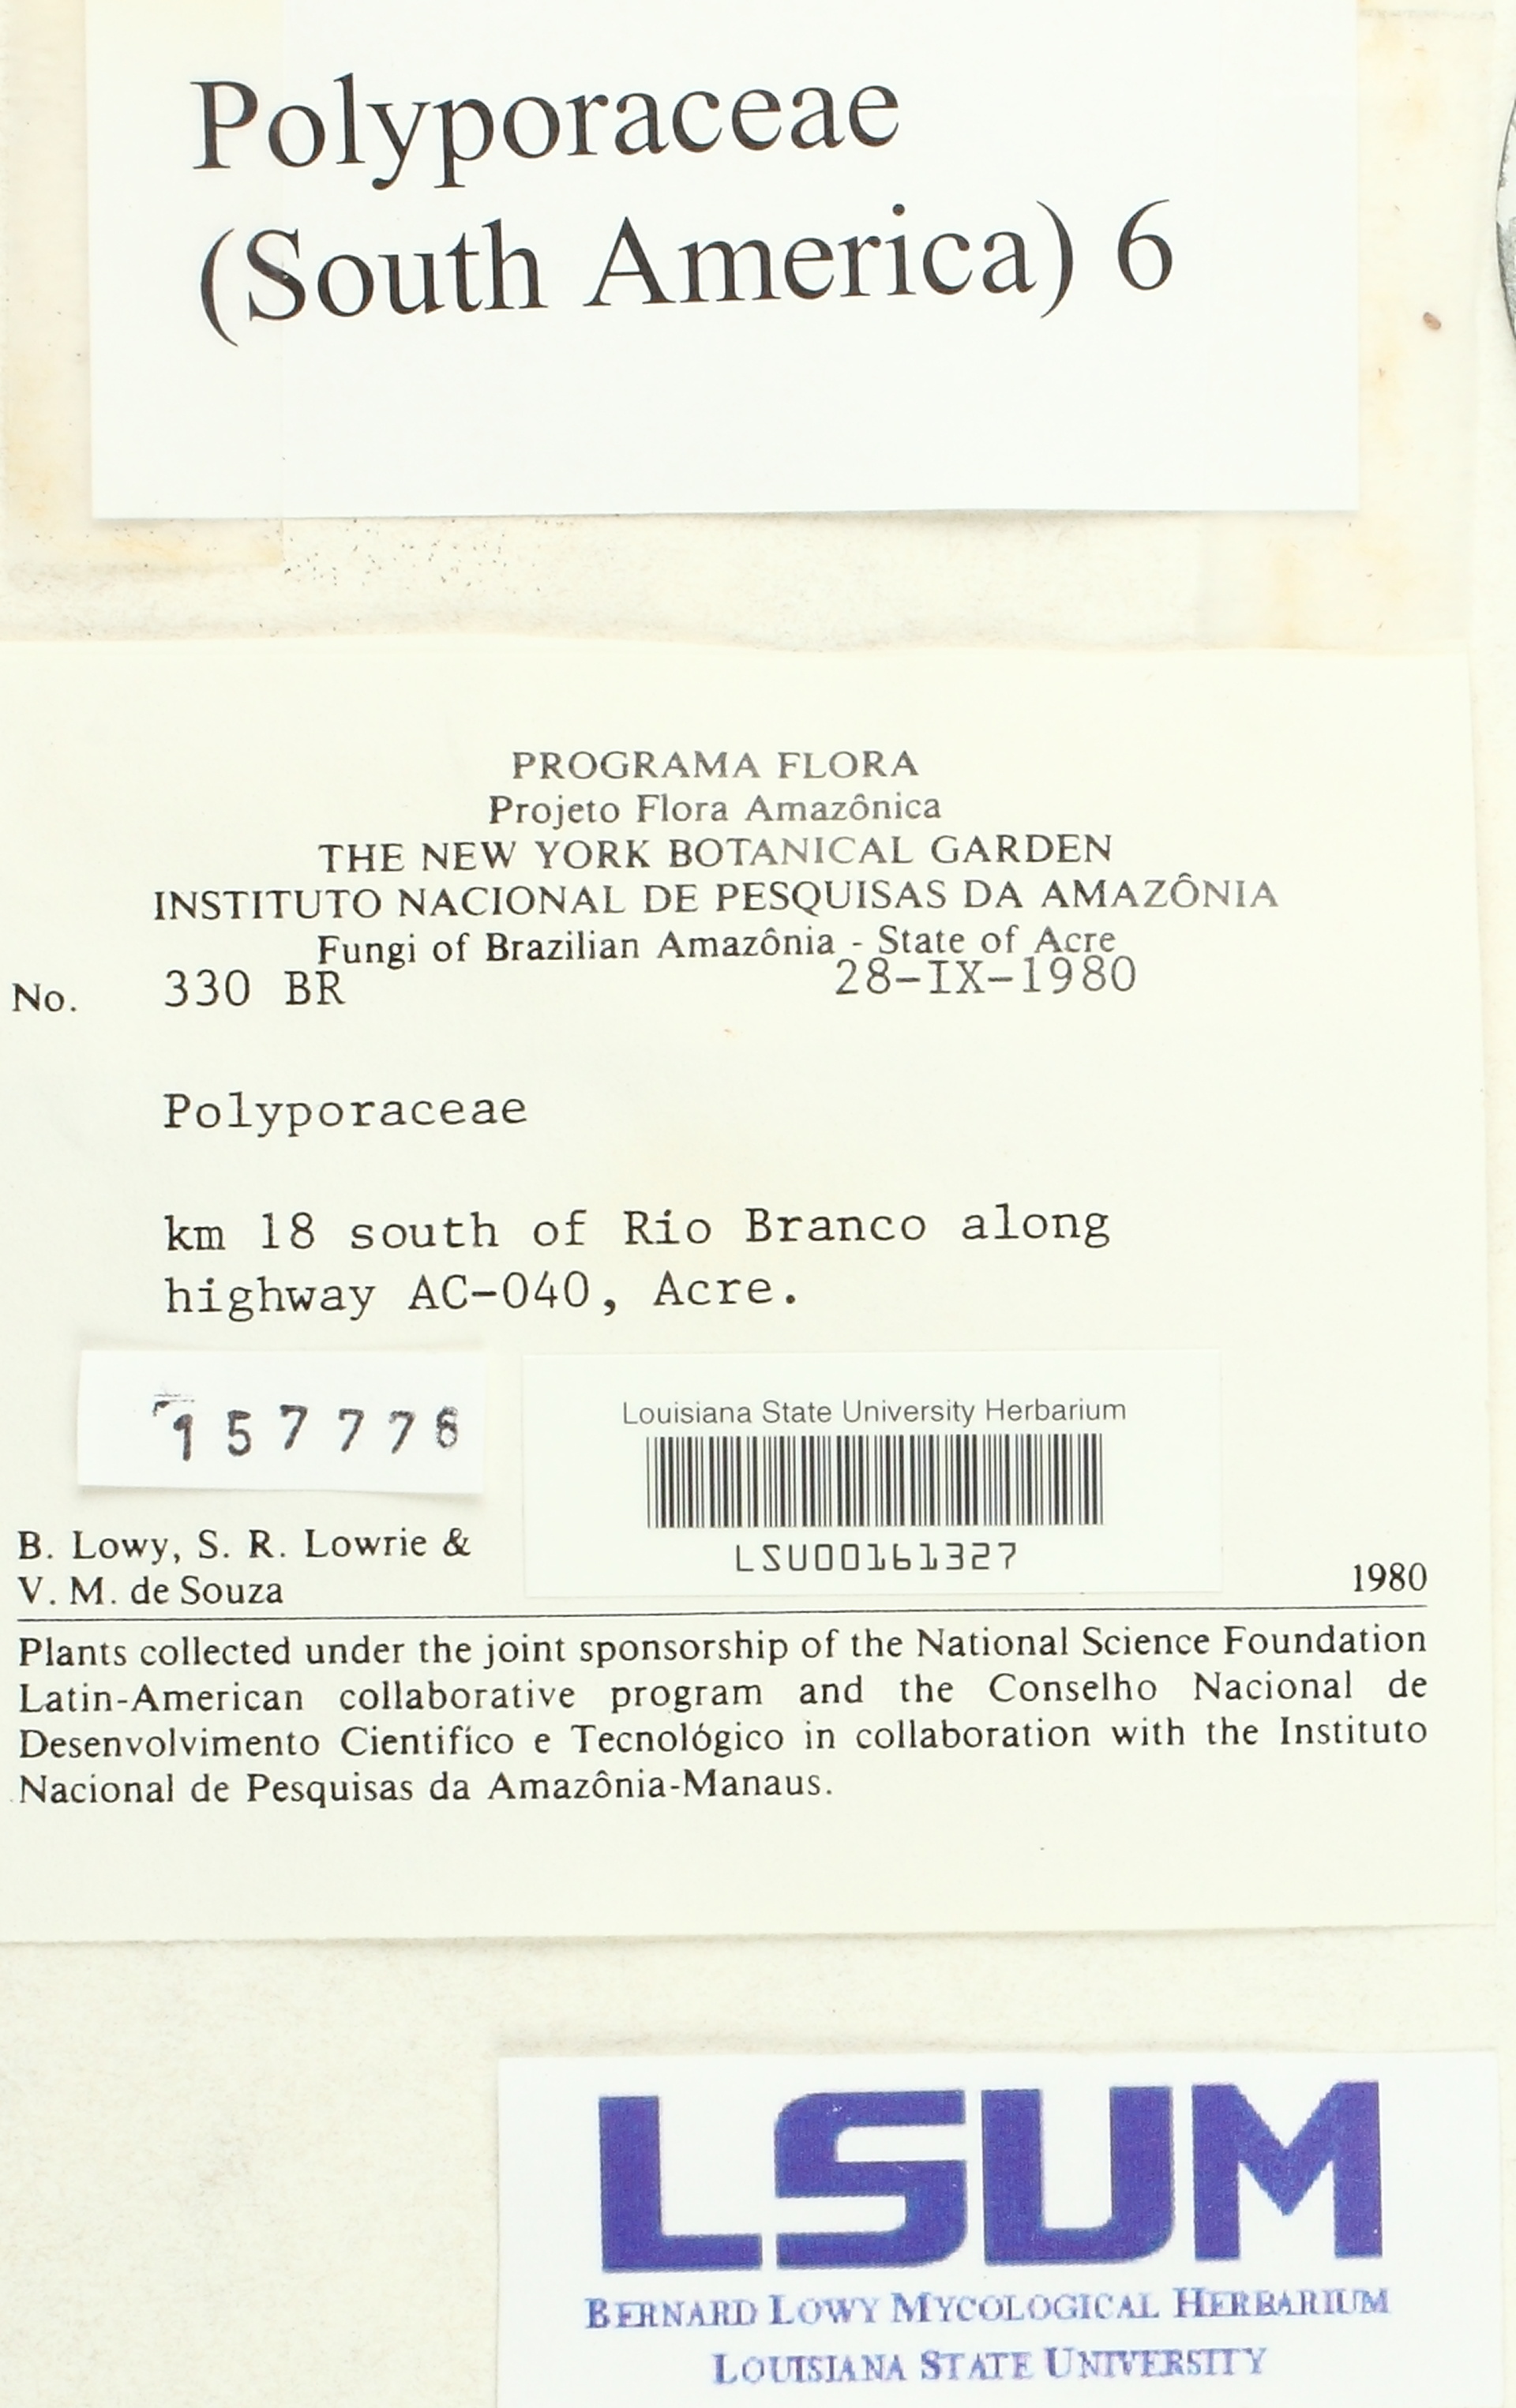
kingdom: Fungi
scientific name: Fungi
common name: Fungi
